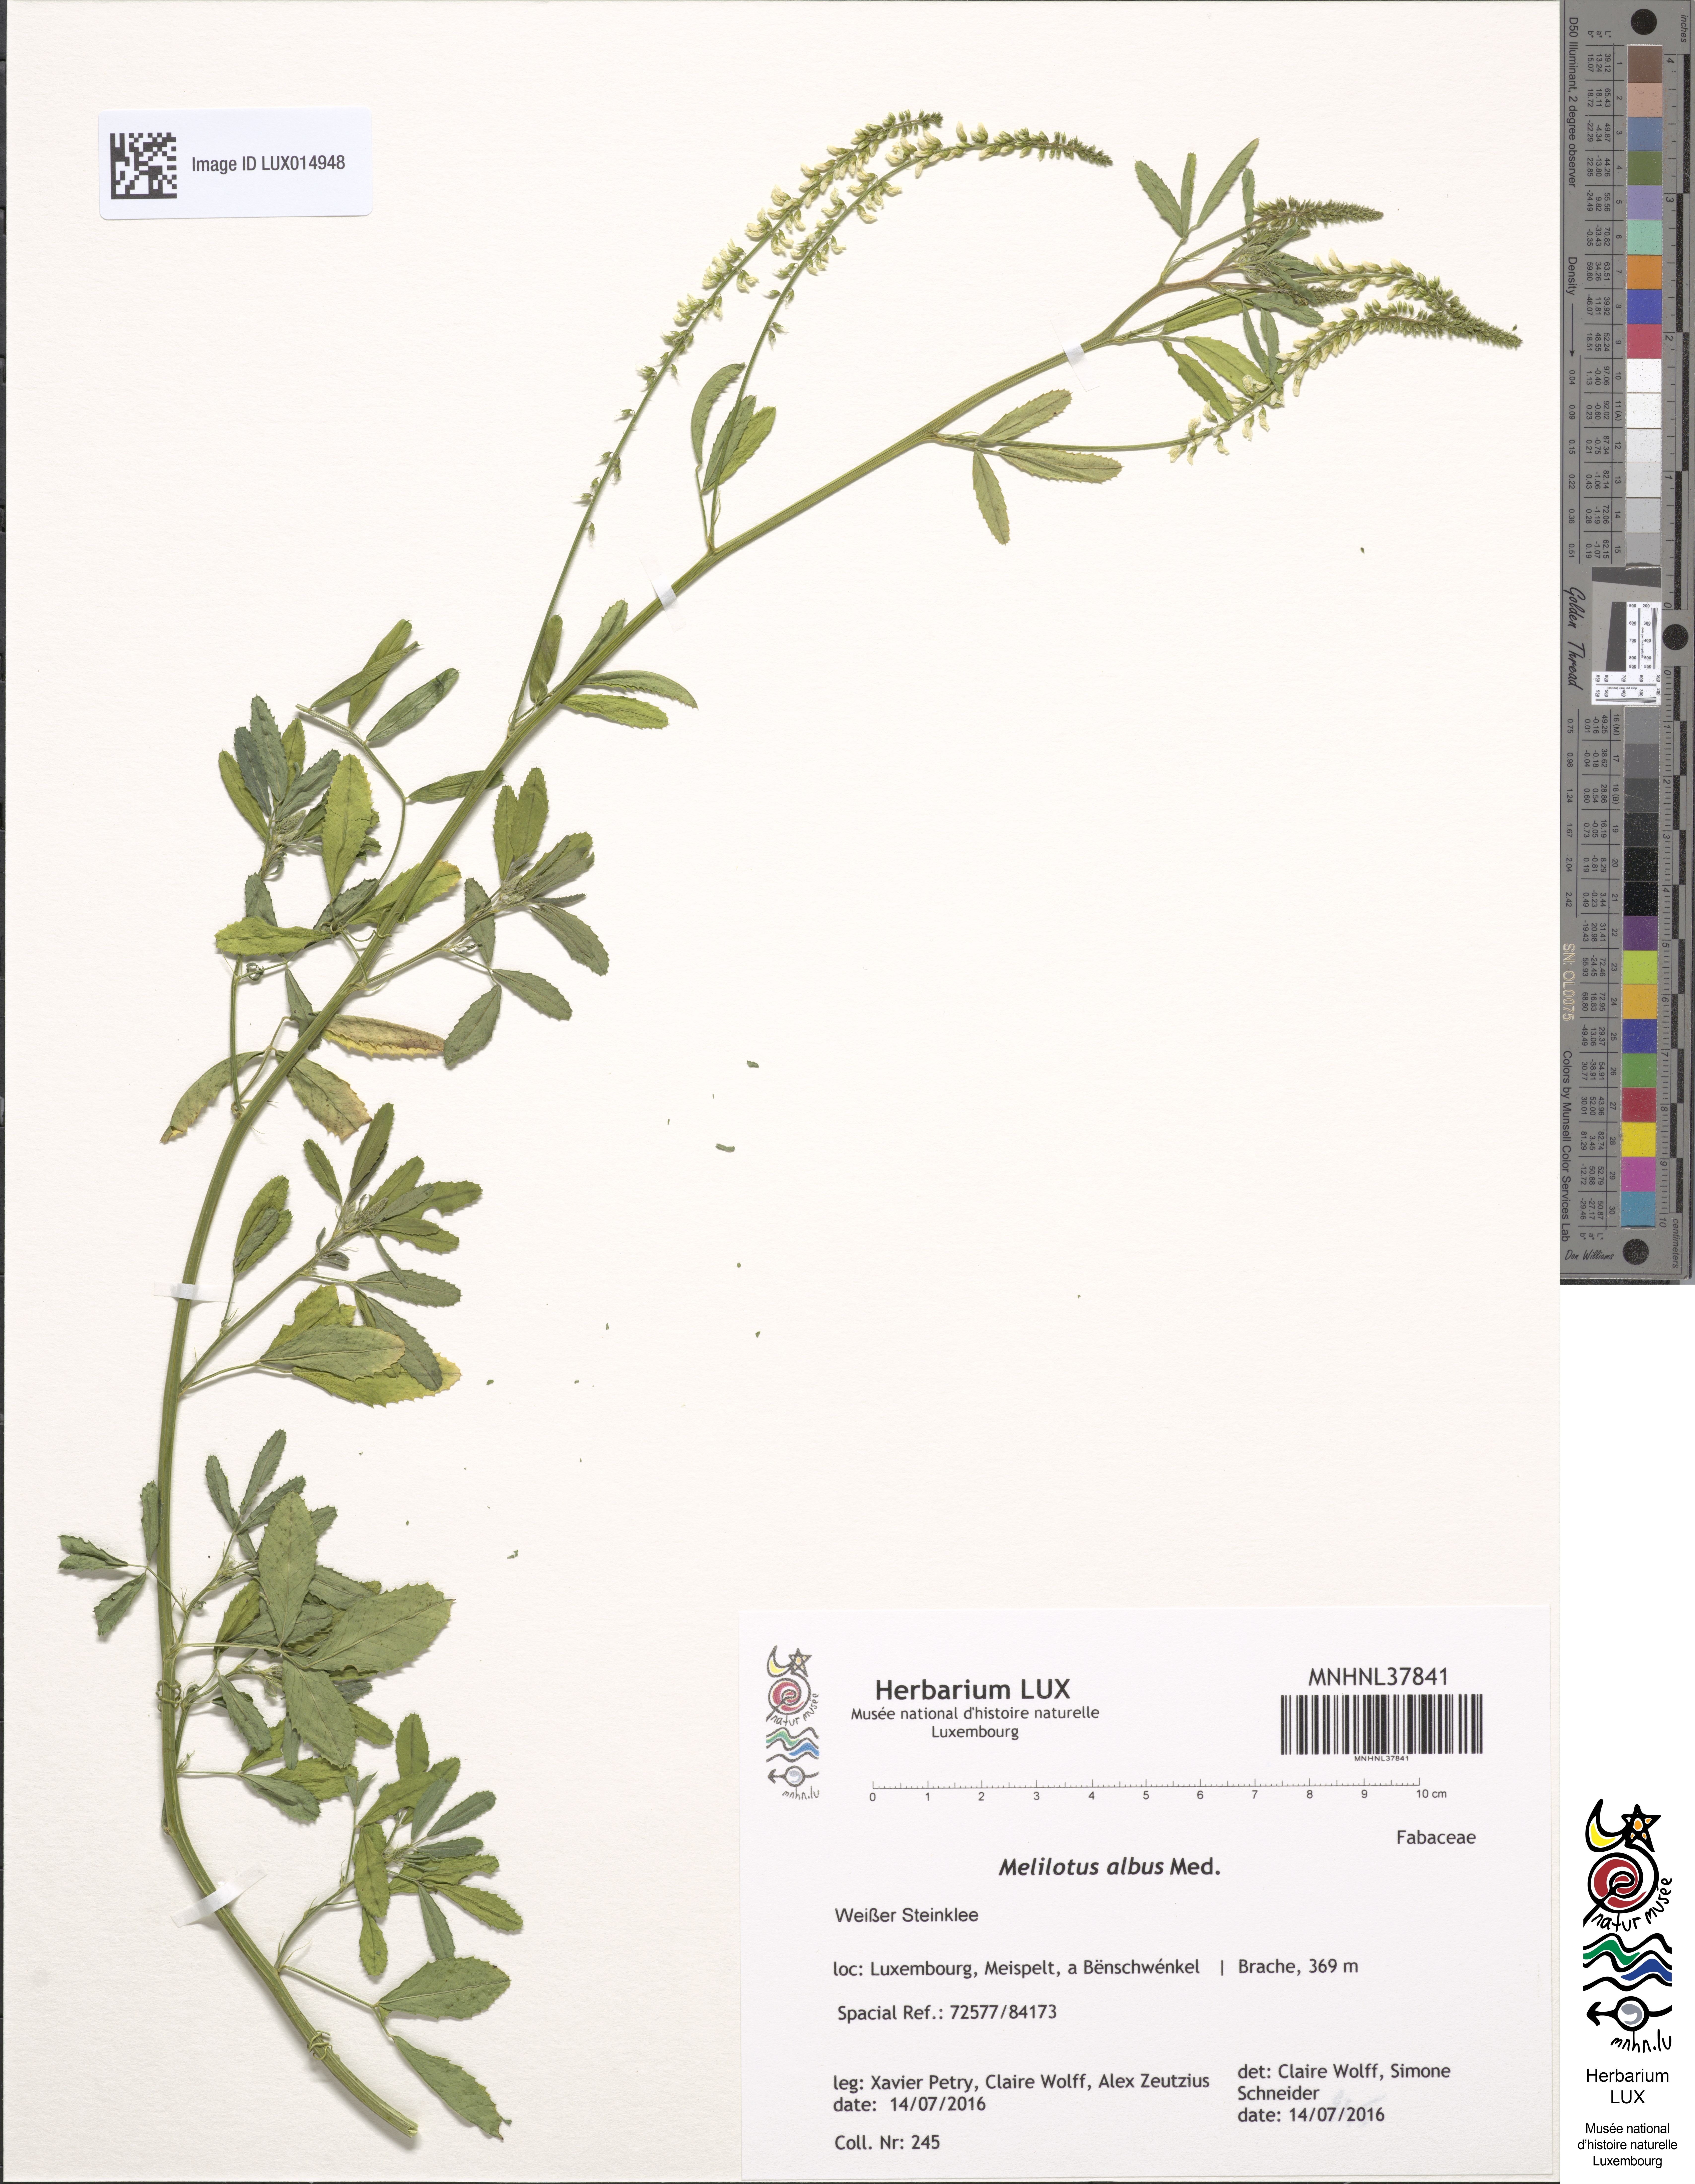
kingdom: Plantae
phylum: Tracheophyta
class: Magnoliopsida
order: Fabales
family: Fabaceae
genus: Melilotus
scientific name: Melilotus albus
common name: White melilot
